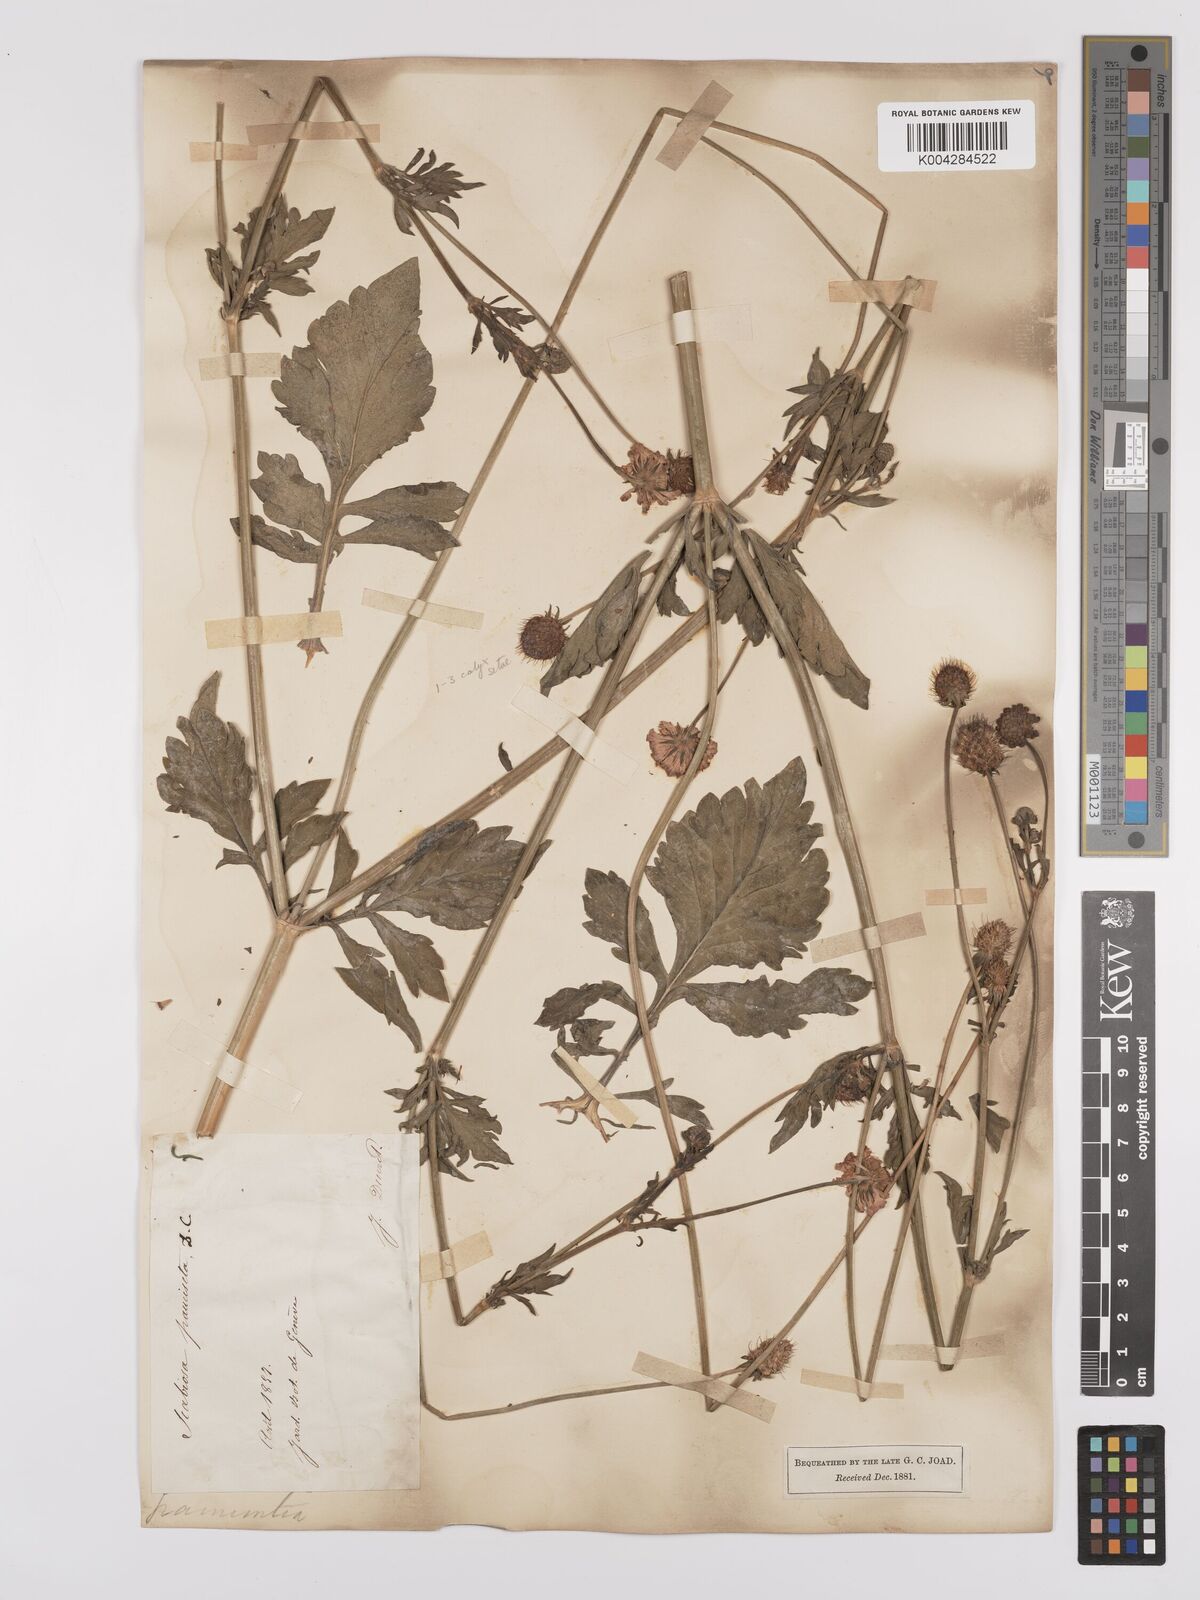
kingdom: Plantae
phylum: Tracheophyta
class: Magnoliopsida
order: Dipsacales
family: Caprifoliaceae
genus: Scabiosa
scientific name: Scabiosa triandra
